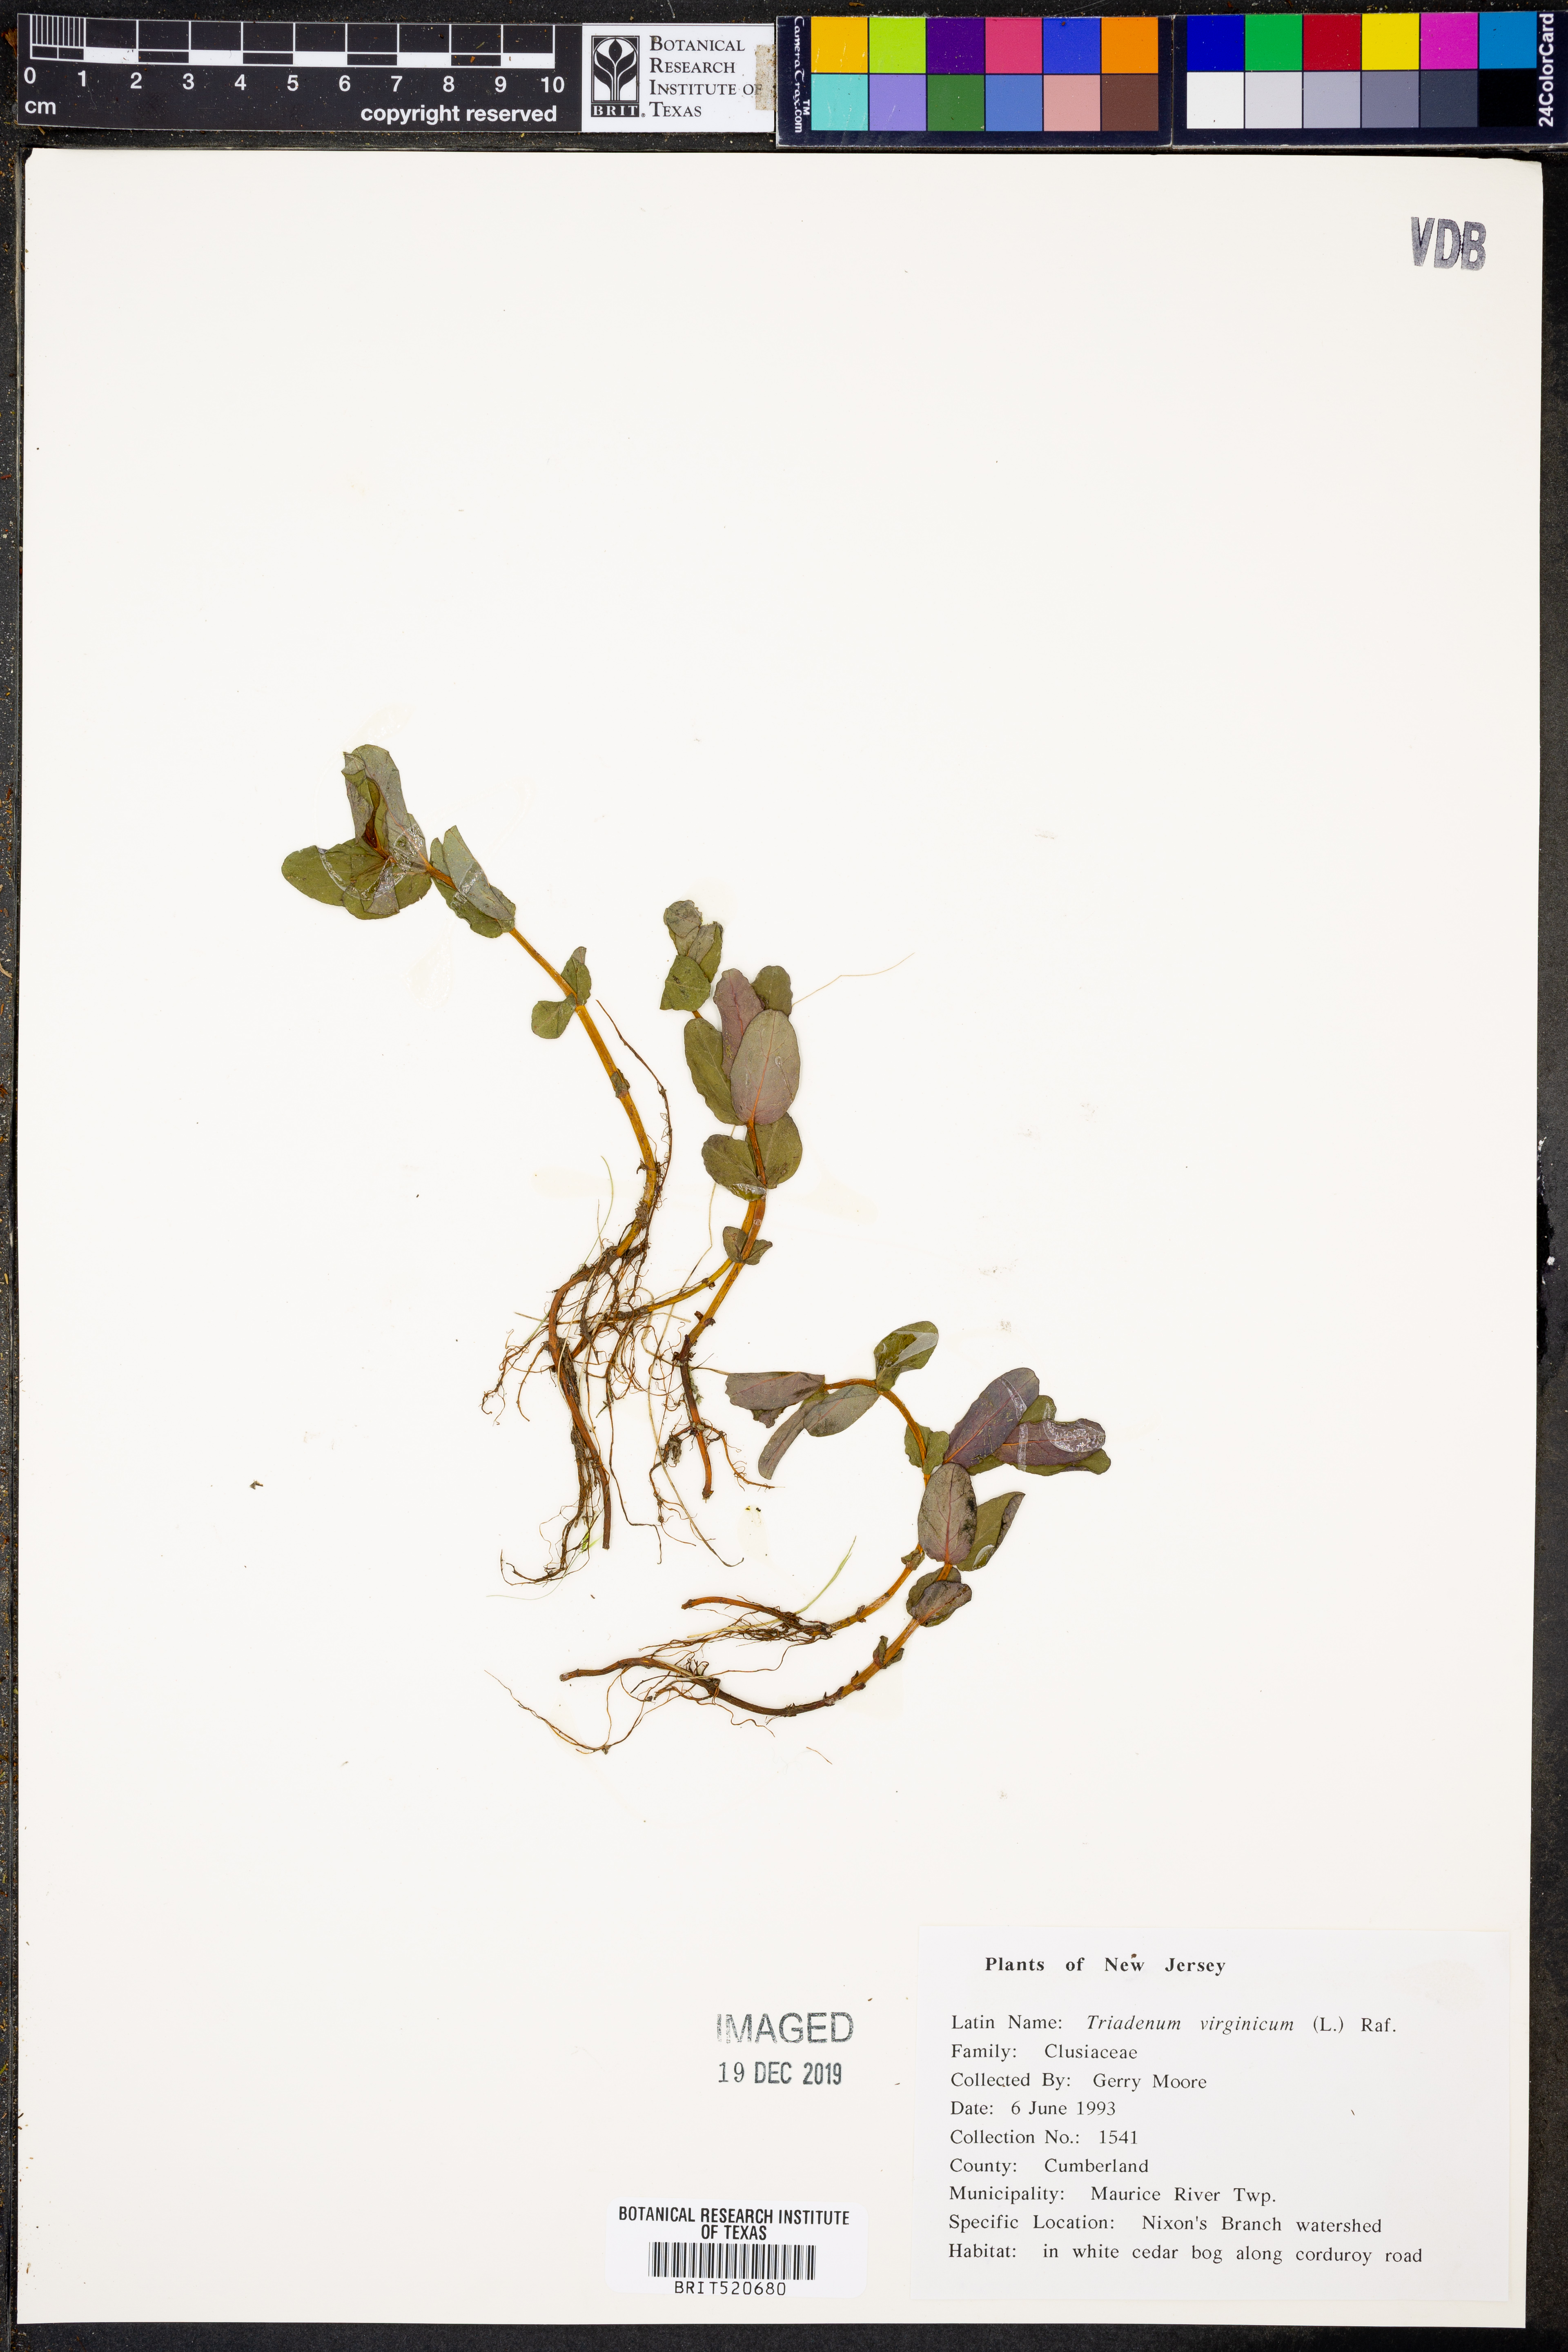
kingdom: Plantae
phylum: Tracheophyta
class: Magnoliopsida
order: Malpighiales
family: Hypericaceae
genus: Triadenum
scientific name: Triadenum virginicum
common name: Marsh st. john's-wort
